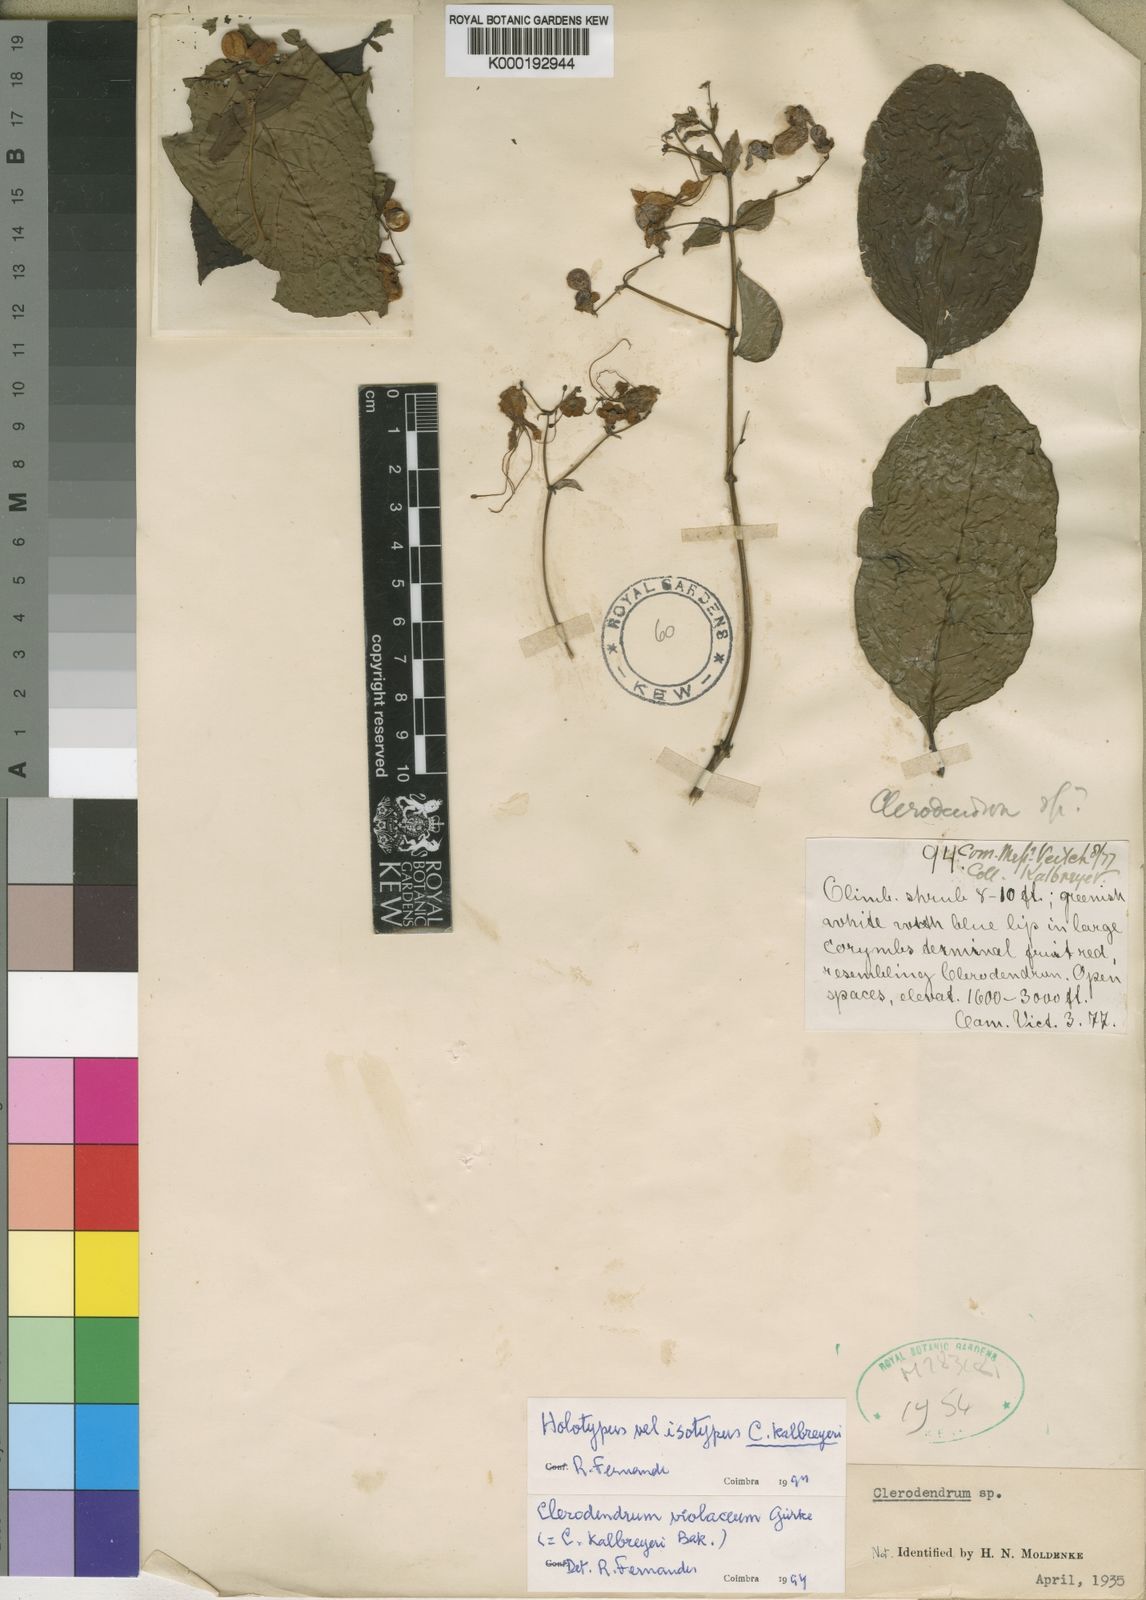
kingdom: Plantae
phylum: Tracheophyta
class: Magnoliopsida
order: Lamiales
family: Lamiaceae
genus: Rotheca
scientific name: Rotheca violacea
